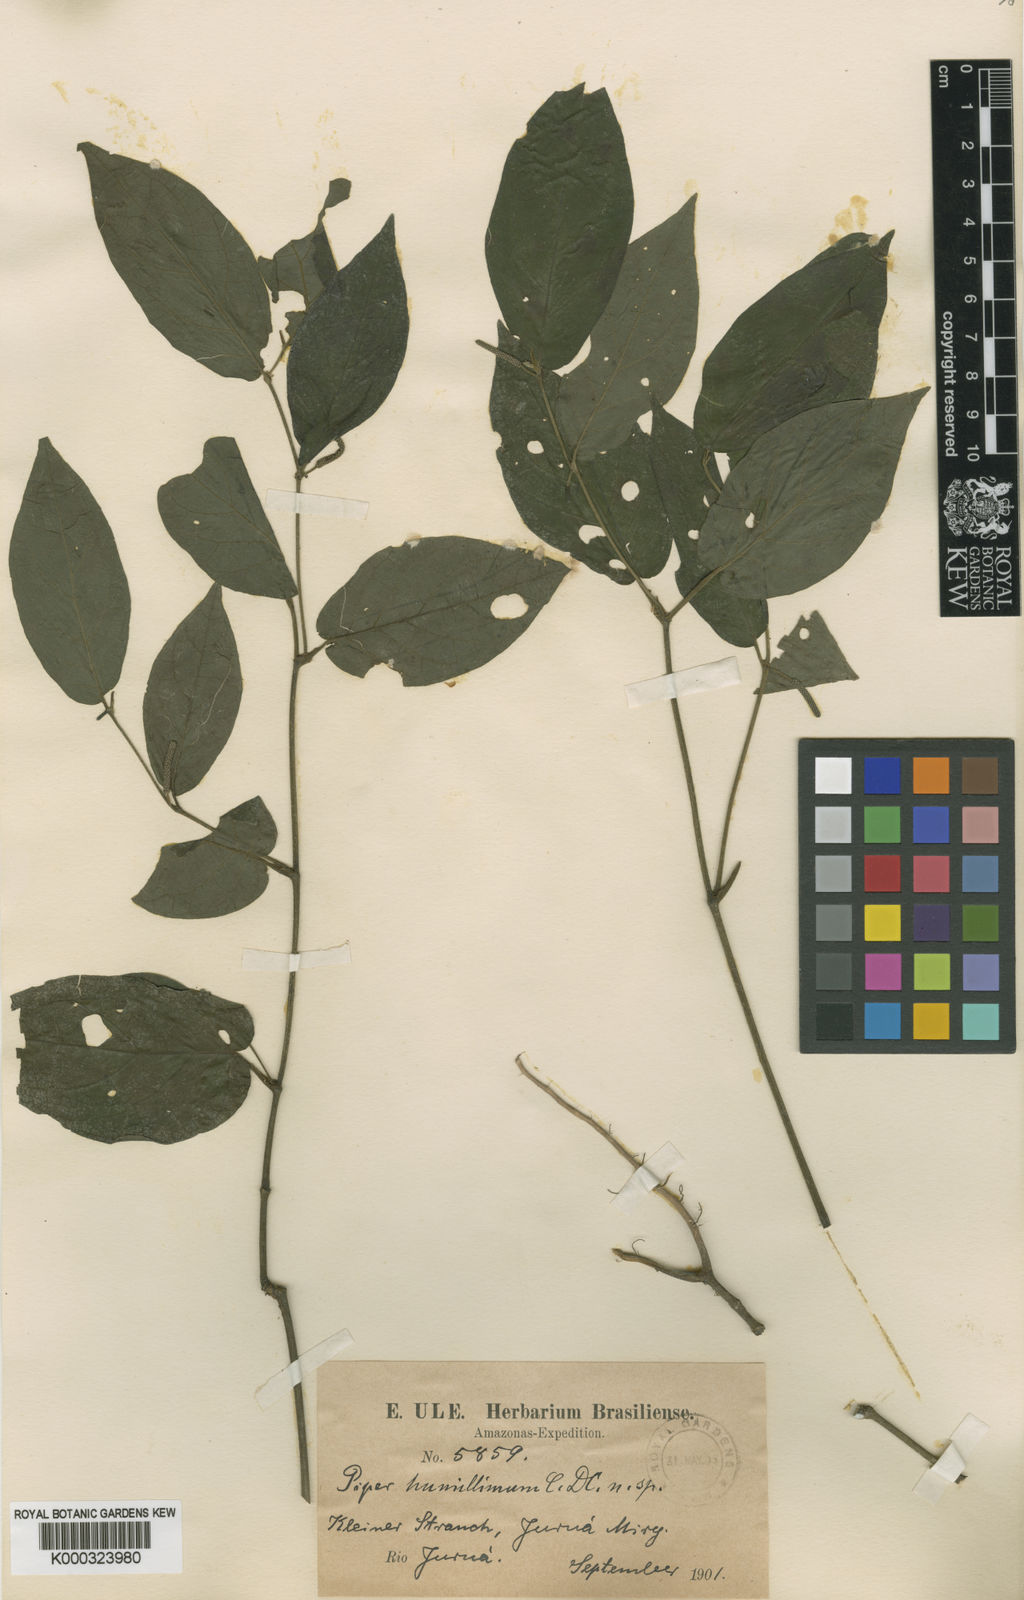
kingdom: Plantae
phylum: Tracheophyta
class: Magnoliopsida
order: Piperales
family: Piperaceae
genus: Piper
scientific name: Piper humillimum
